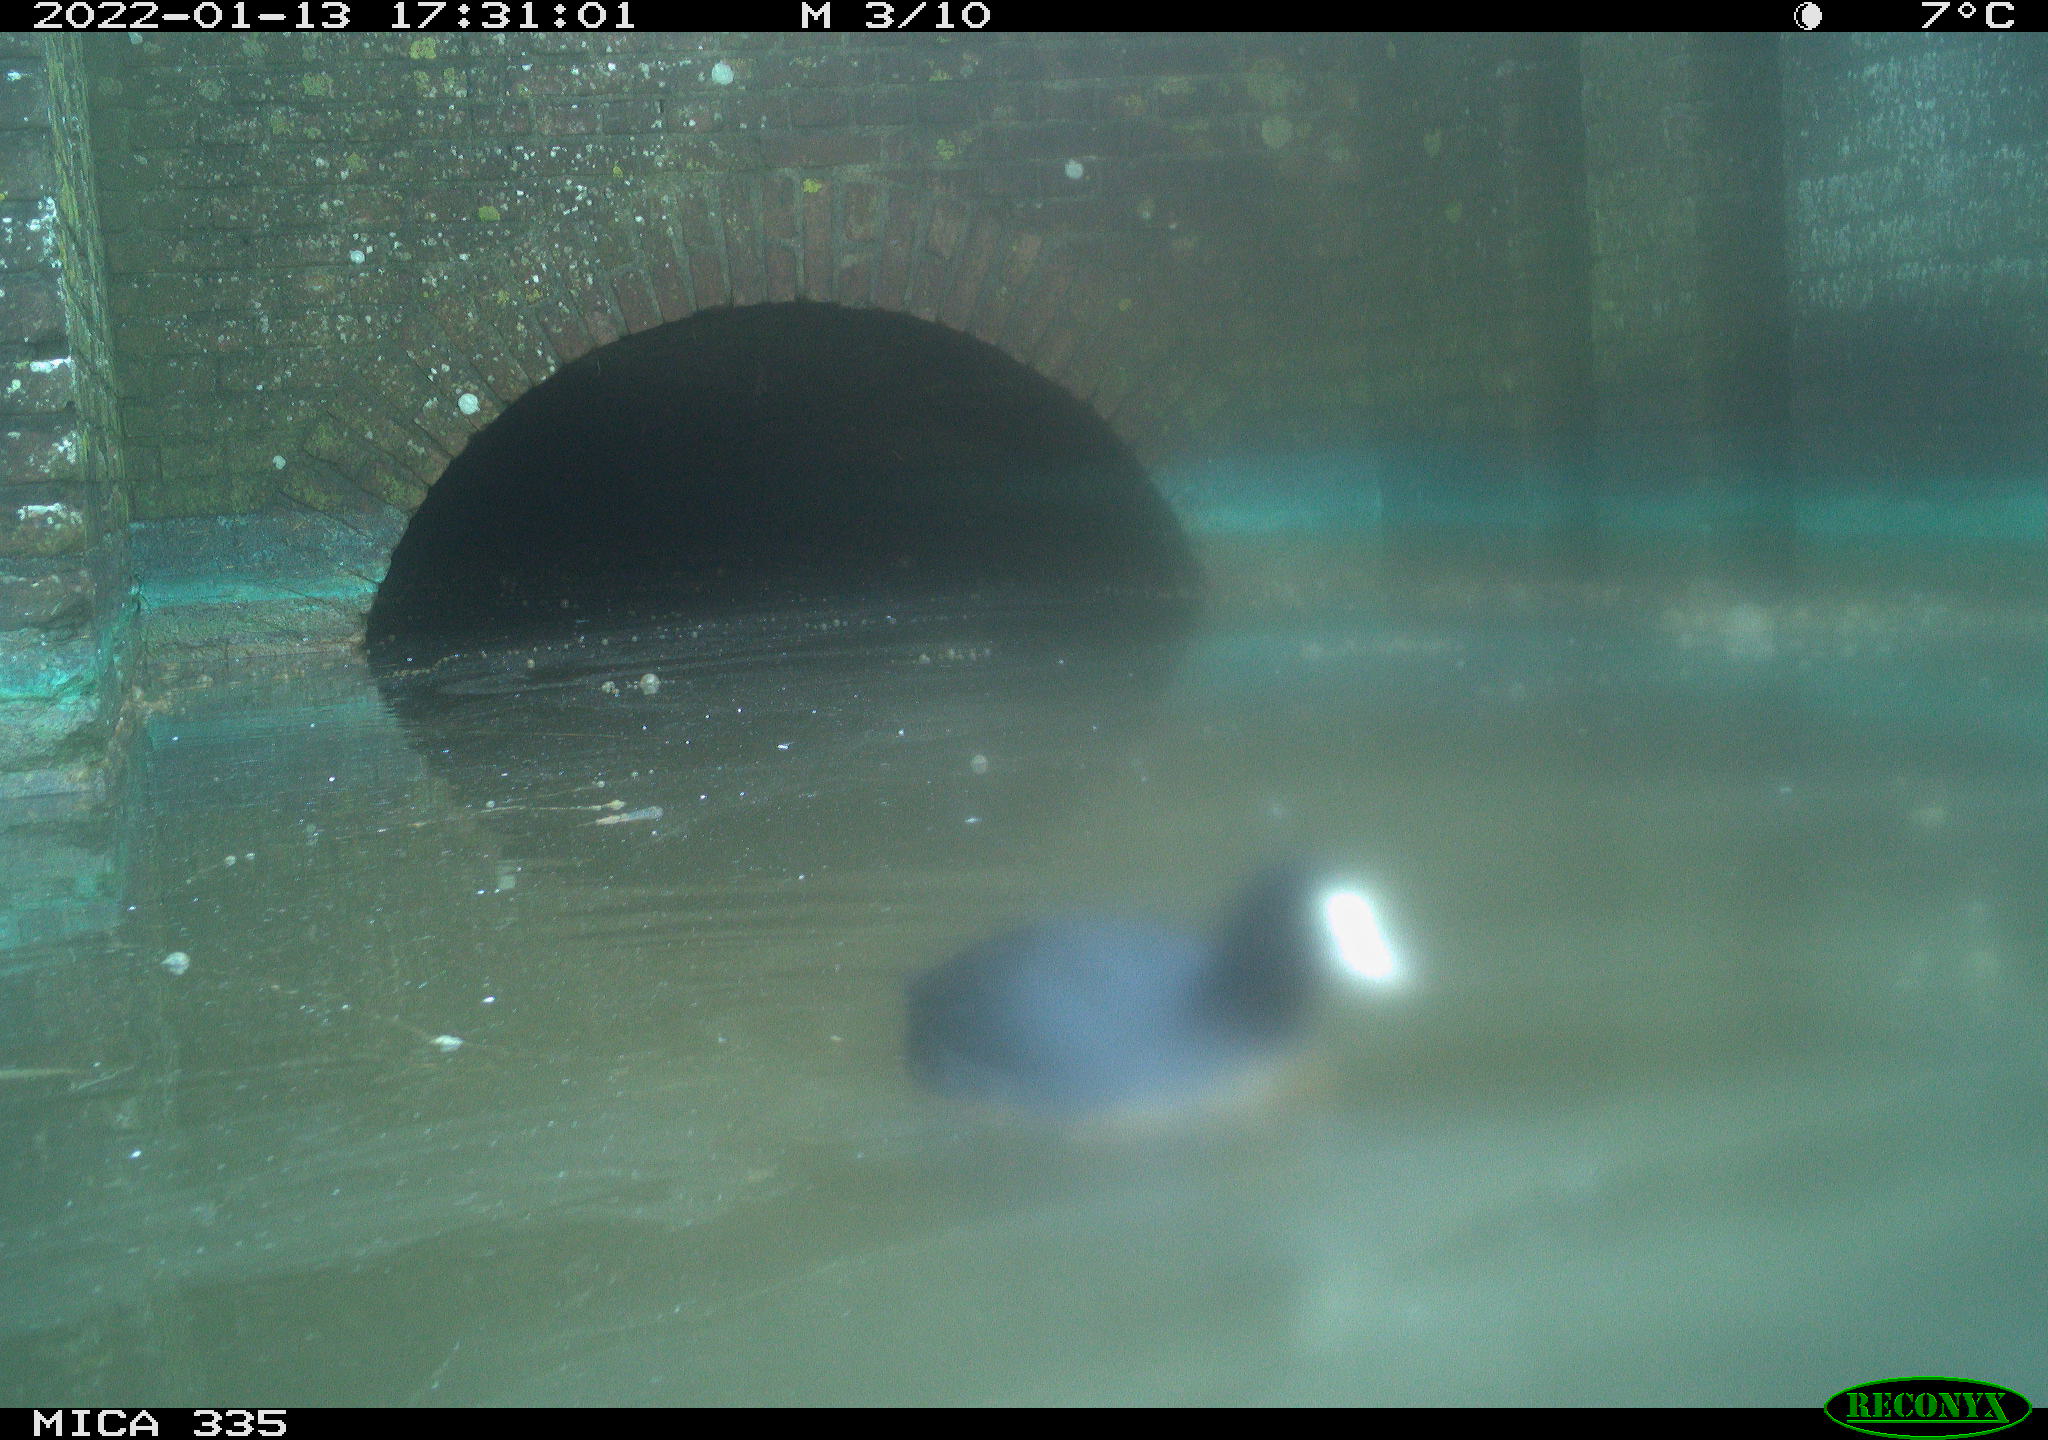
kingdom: Animalia
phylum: Chordata
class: Aves
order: Suliformes
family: Phalacrocoracidae
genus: Phalacrocorax
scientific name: Phalacrocorax carbo
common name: Great cormorant
